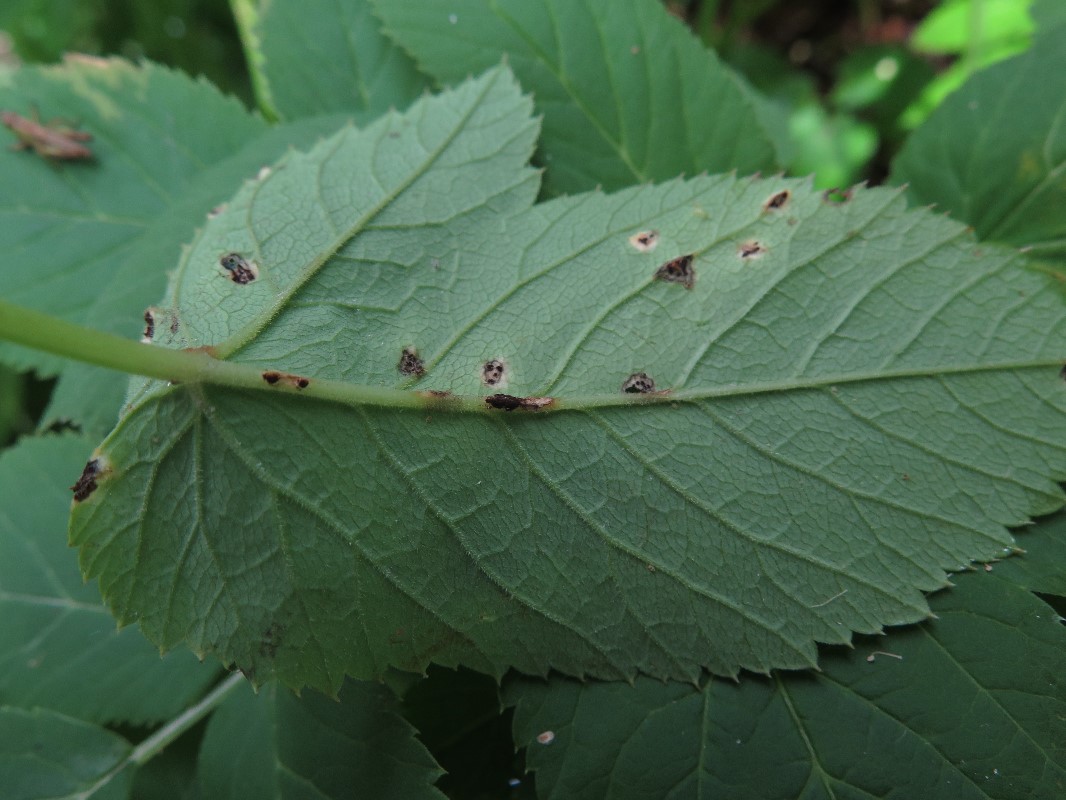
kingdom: Fungi
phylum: Basidiomycota
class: Pucciniomycetes
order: Pucciniales
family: Pucciniaceae
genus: Puccinia
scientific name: Puccinia
